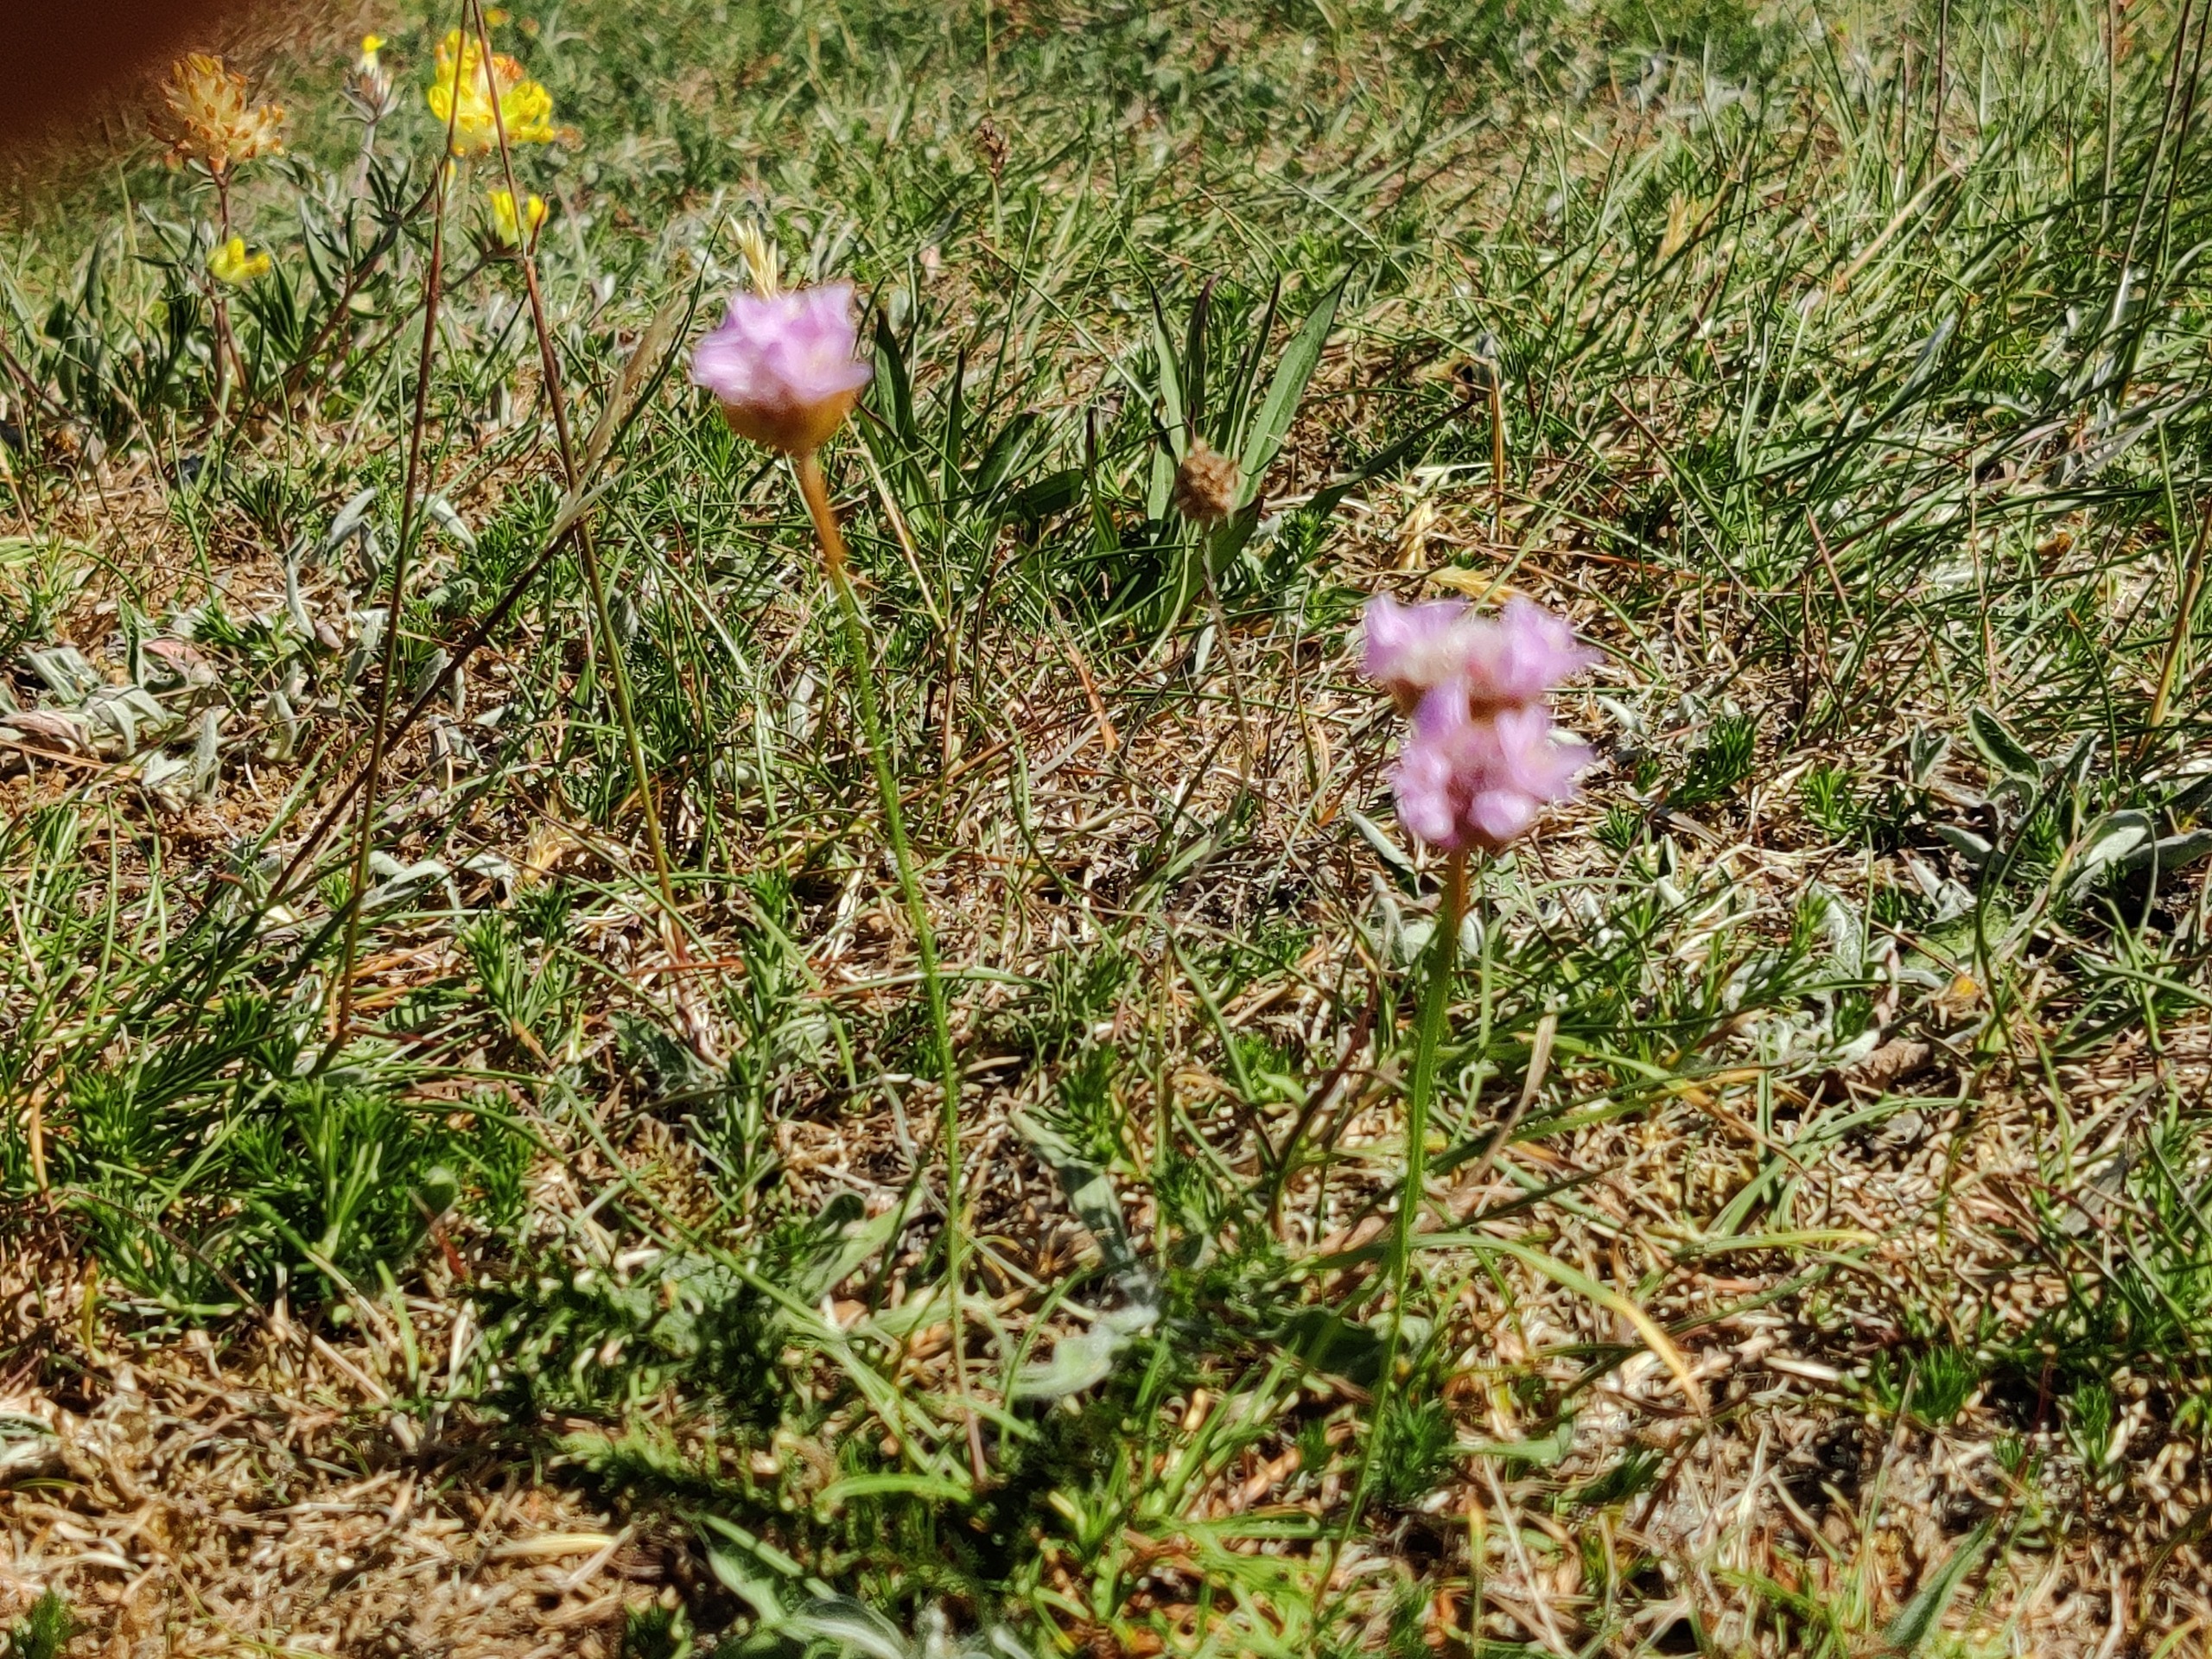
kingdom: Plantae
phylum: Tracheophyta
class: Magnoliopsida
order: Caryophyllales
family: Plumbaginaceae
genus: Armeria
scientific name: Armeria maritima
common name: Engelskgræs
